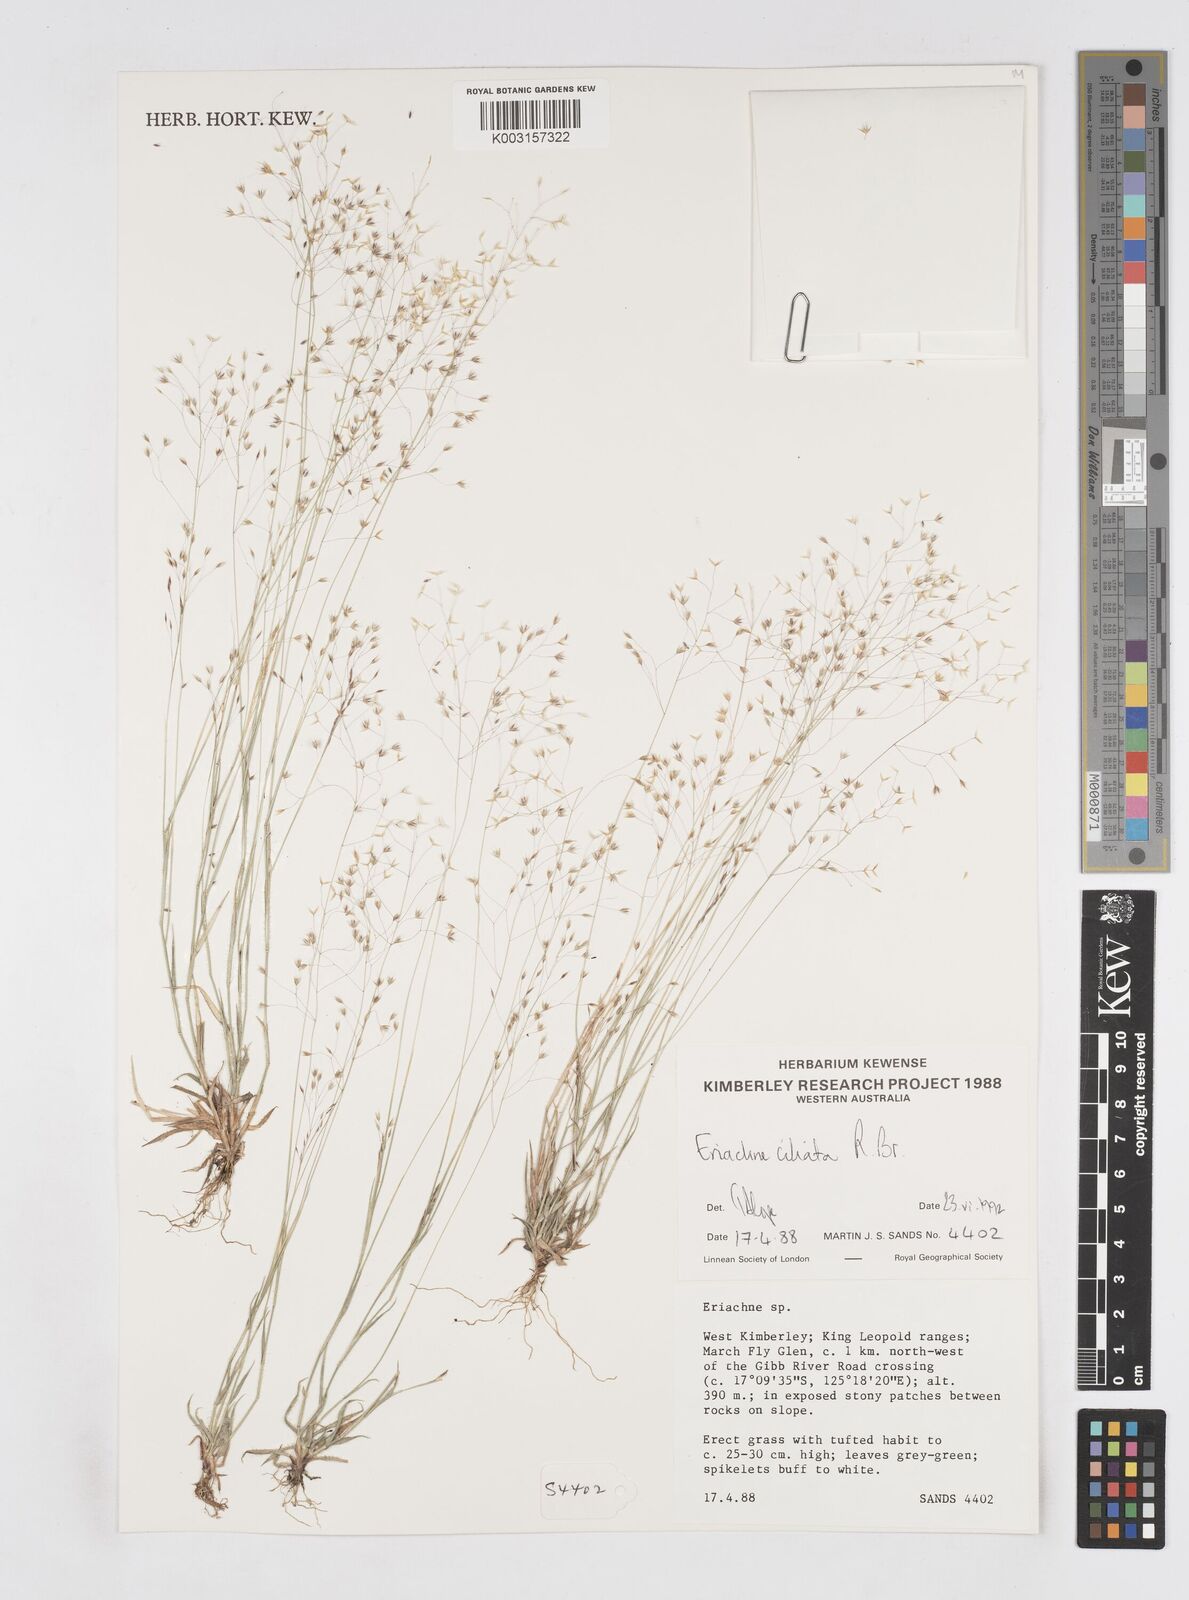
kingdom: Plantae
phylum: Tracheophyta
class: Liliopsida
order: Poales
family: Poaceae
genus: Eriachne
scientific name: Eriachne ciliata
